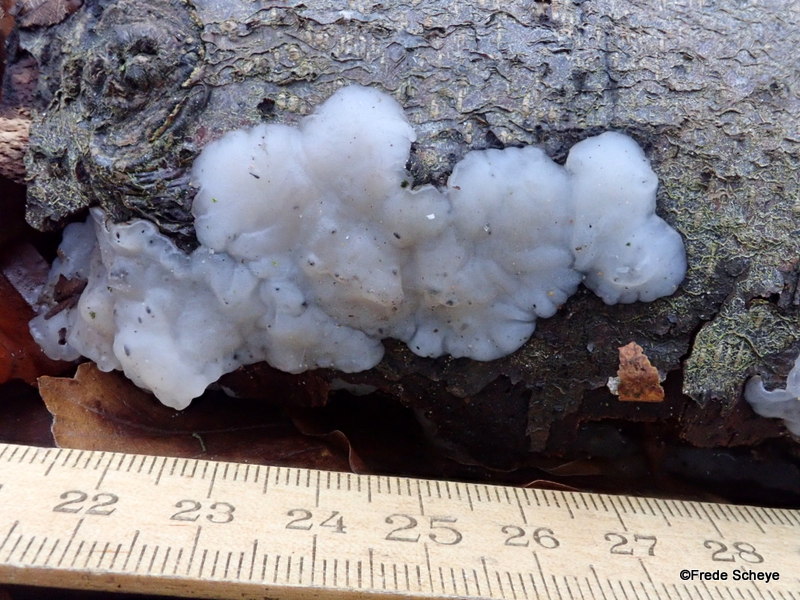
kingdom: Fungi
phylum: Basidiomycota
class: Agaricomycetes
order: Auriculariales
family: Auriculariaceae
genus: Exidia
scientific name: Exidia thuretiana
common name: hvidlig bævretop
